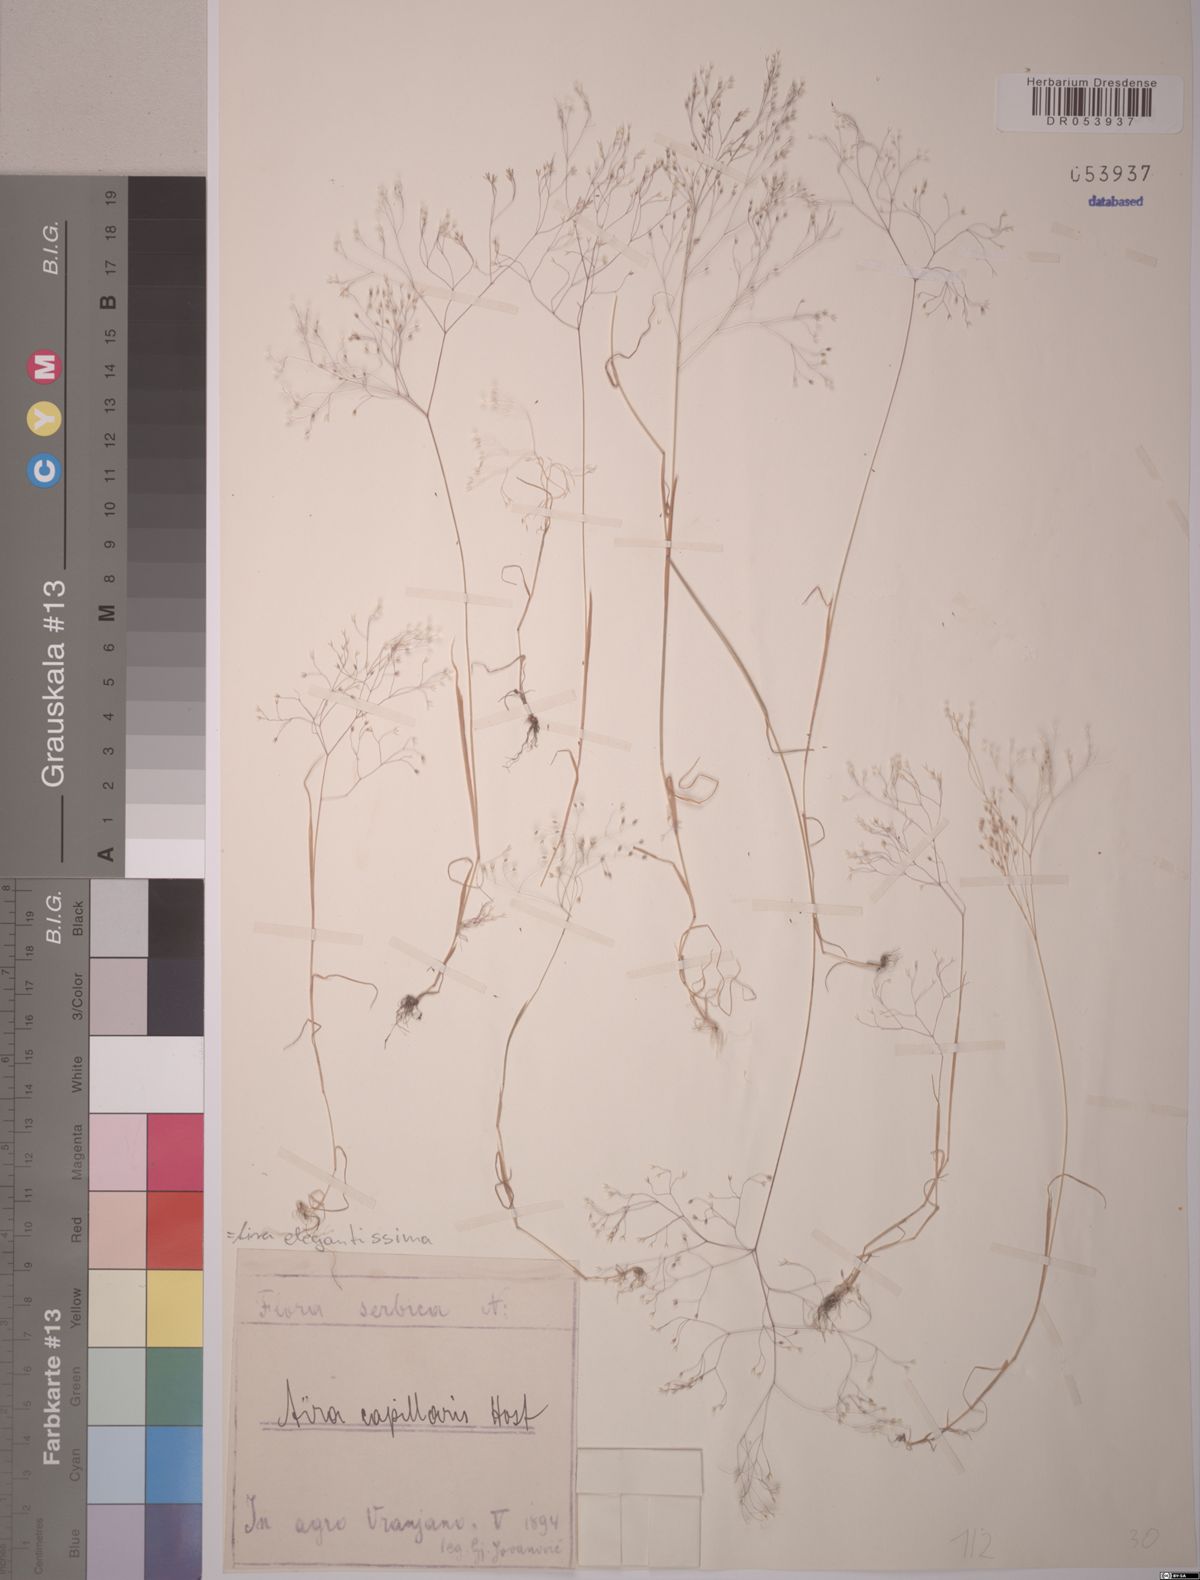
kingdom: Plantae
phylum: Tracheophyta
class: Liliopsida
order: Poales
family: Poaceae
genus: Aira
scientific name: Aira elegans
